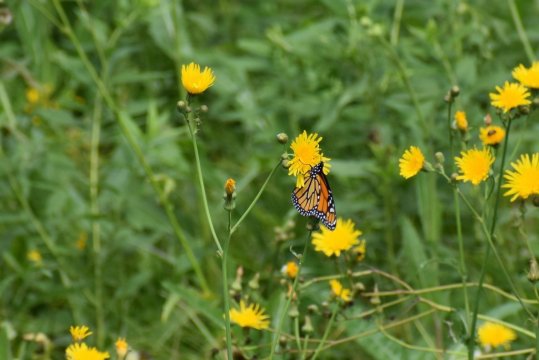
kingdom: Animalia
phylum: Arthropoda
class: Insecta
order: Lepidoptera
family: Nymphalidae
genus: Danaus
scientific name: Danaus plexippus
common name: Monarch
